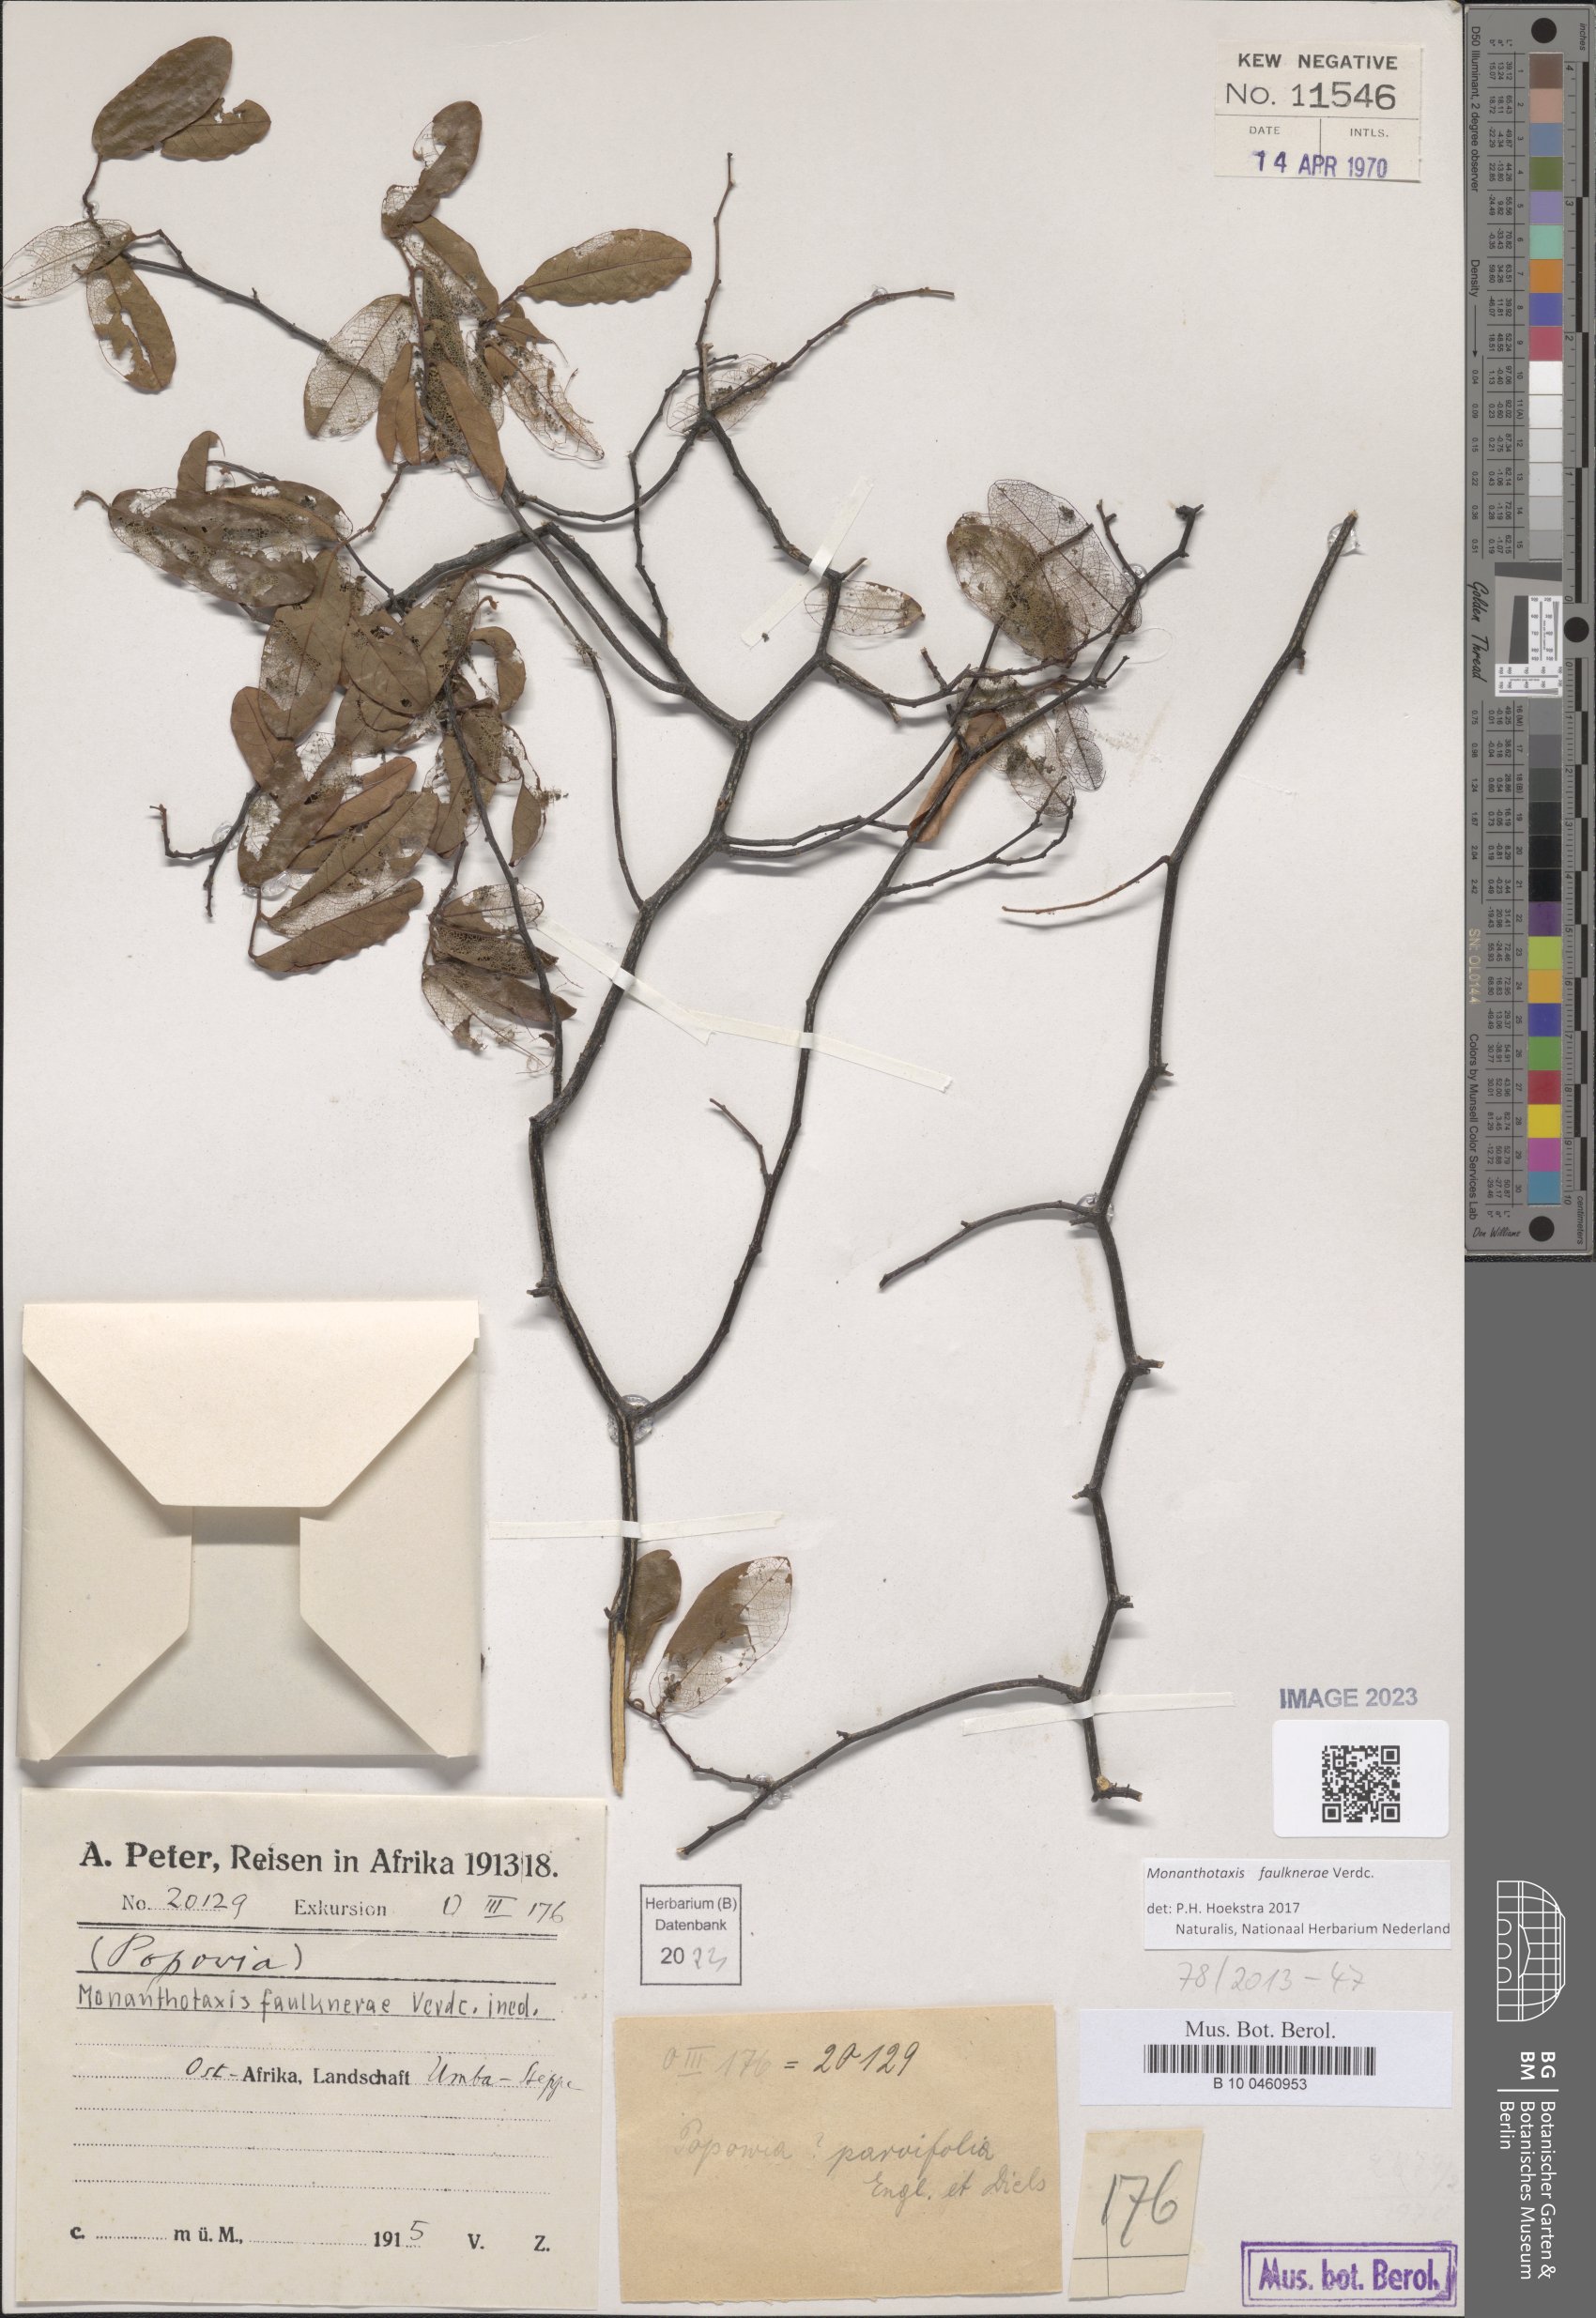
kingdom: Plantae
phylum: Tracheophyta
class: Magnoliopsida
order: Magnoliales
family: Annonaceae
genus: Monanthotaxis
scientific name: Monanthotaxis faulknerae
